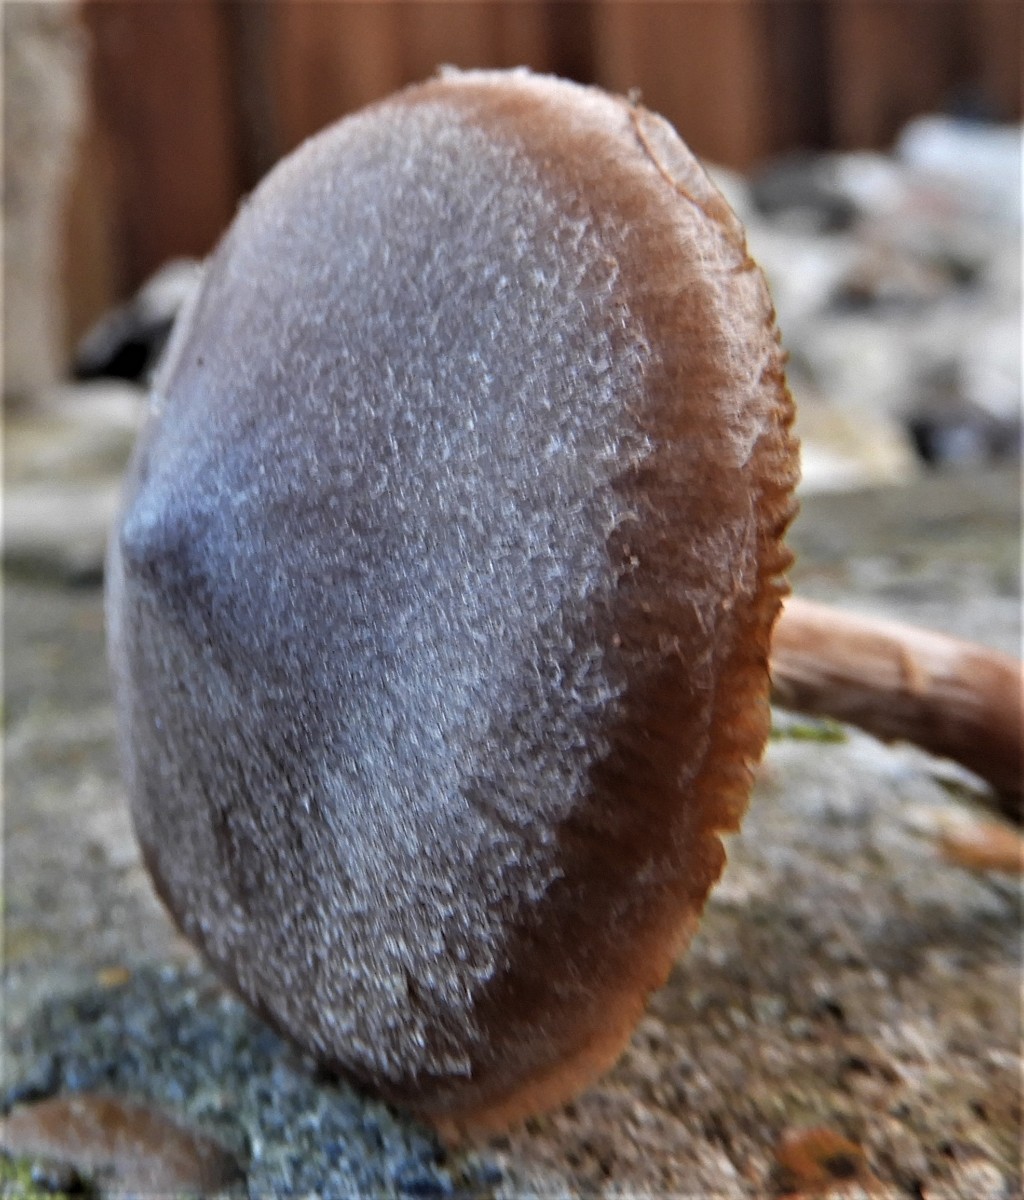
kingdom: Fungi
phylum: Basidiomycota
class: Agaricomycetes
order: Agaricales
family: Cortinariaceae
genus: Cortinarius
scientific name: Cortinarius
